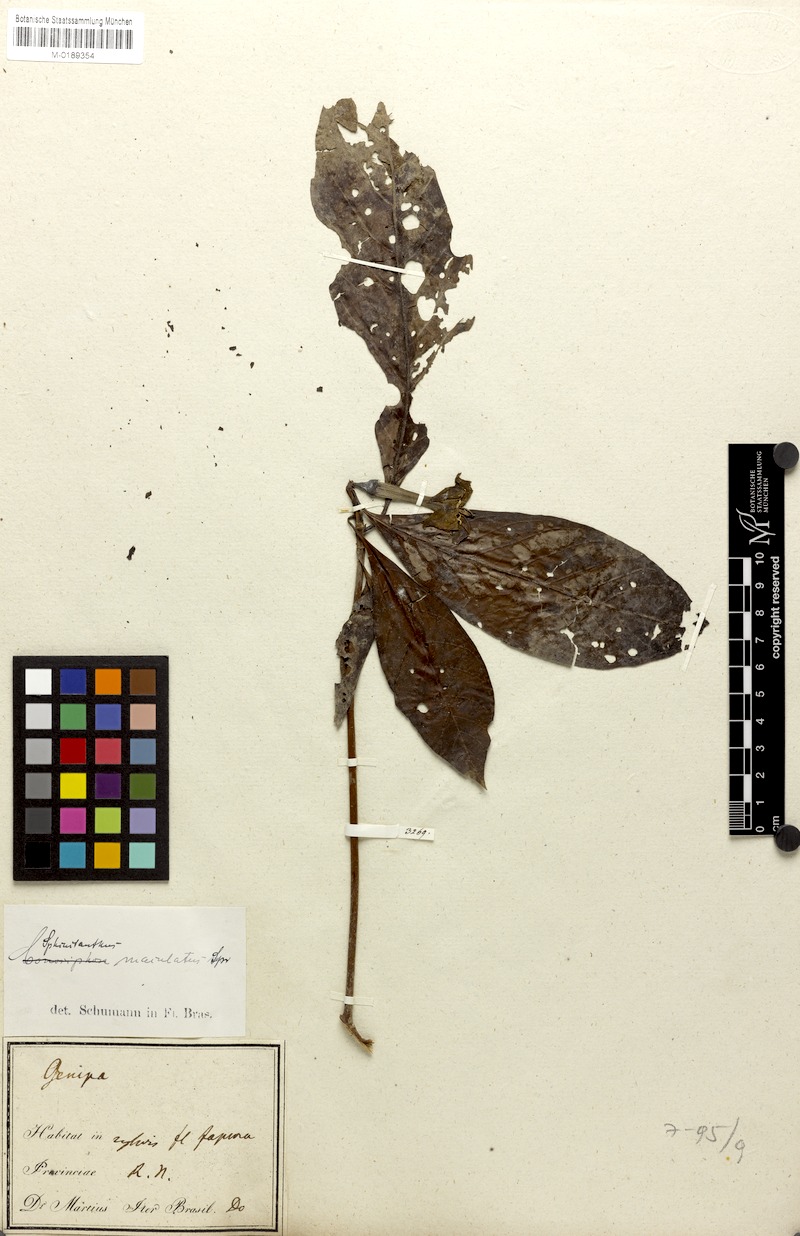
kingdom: Plantae
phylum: Tracheophyta
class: Magnoliopsida
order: Gentianales
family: Rubiaceae
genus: Sphinctanthus
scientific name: Sphinctanthus maculatus
